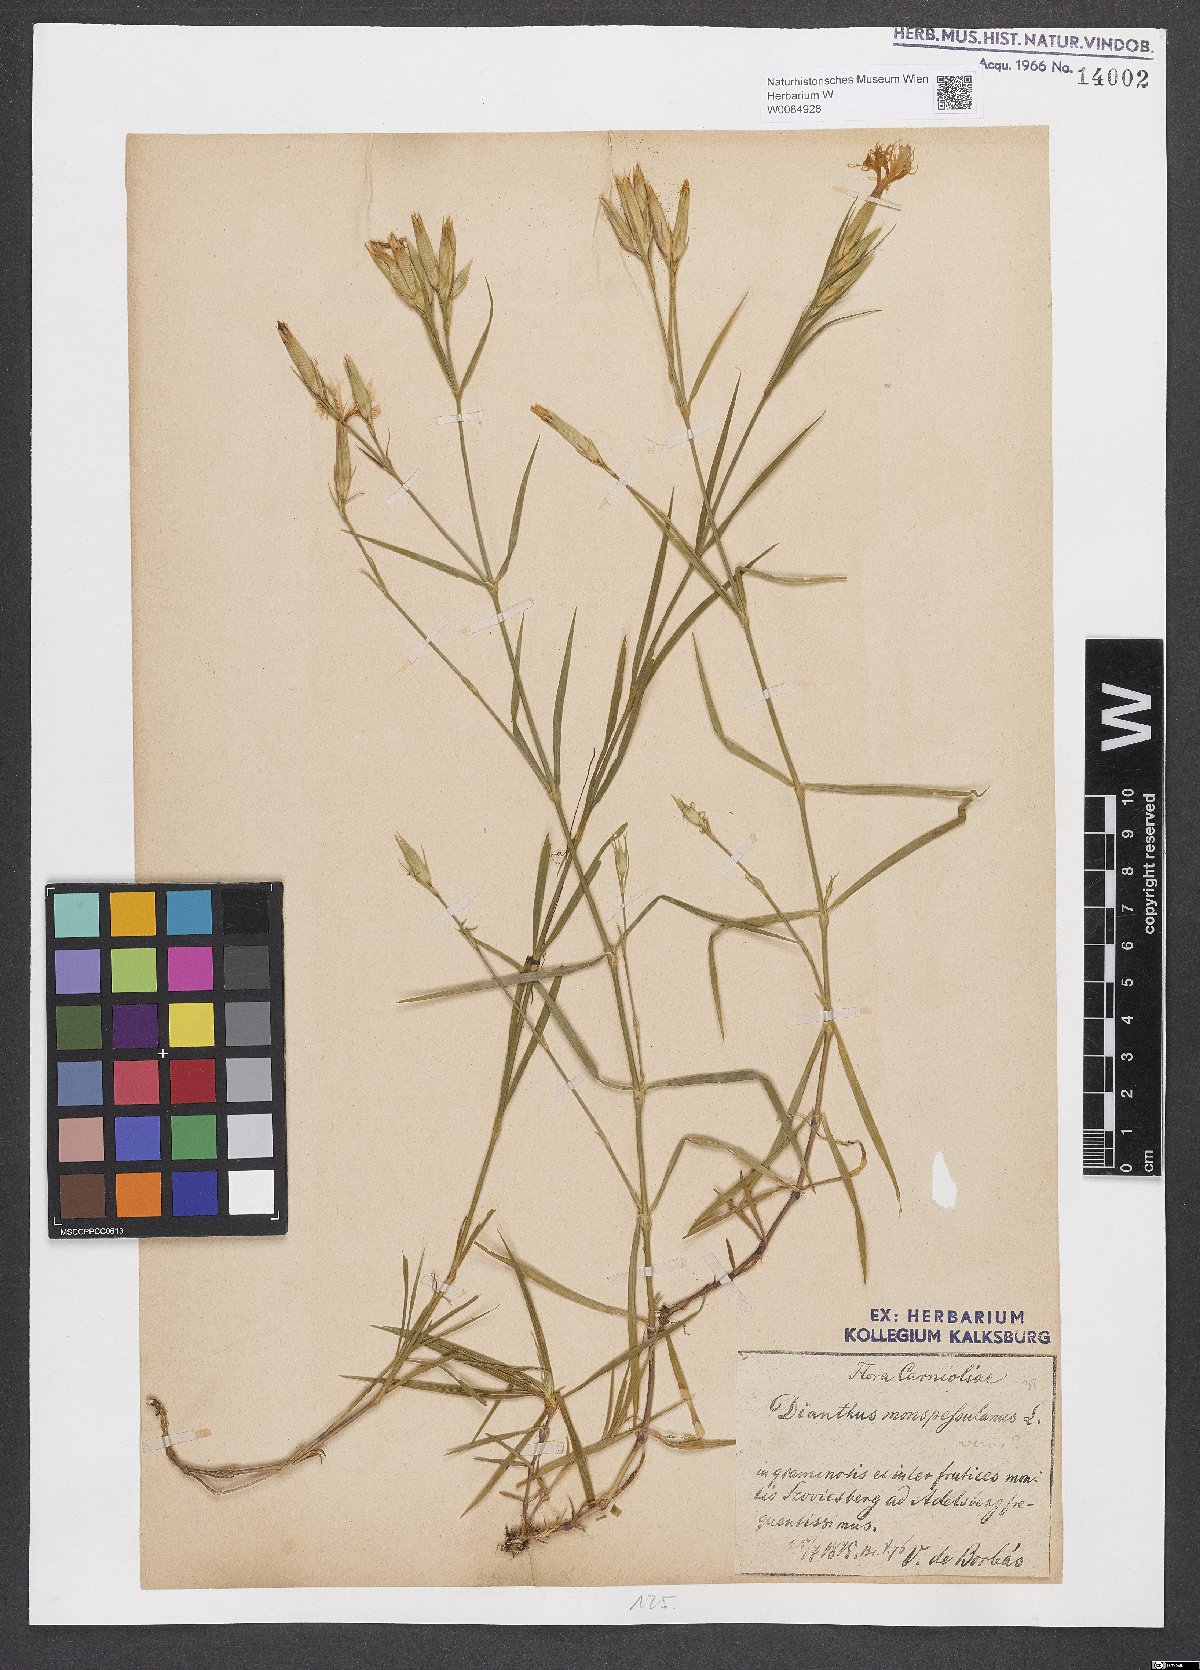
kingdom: Plantae
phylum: Tracheophyta
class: Magnoliopsida
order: Caryophyllales
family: Caryophyllaceae
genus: Dianthus
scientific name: Dianthus hyssopifolius
